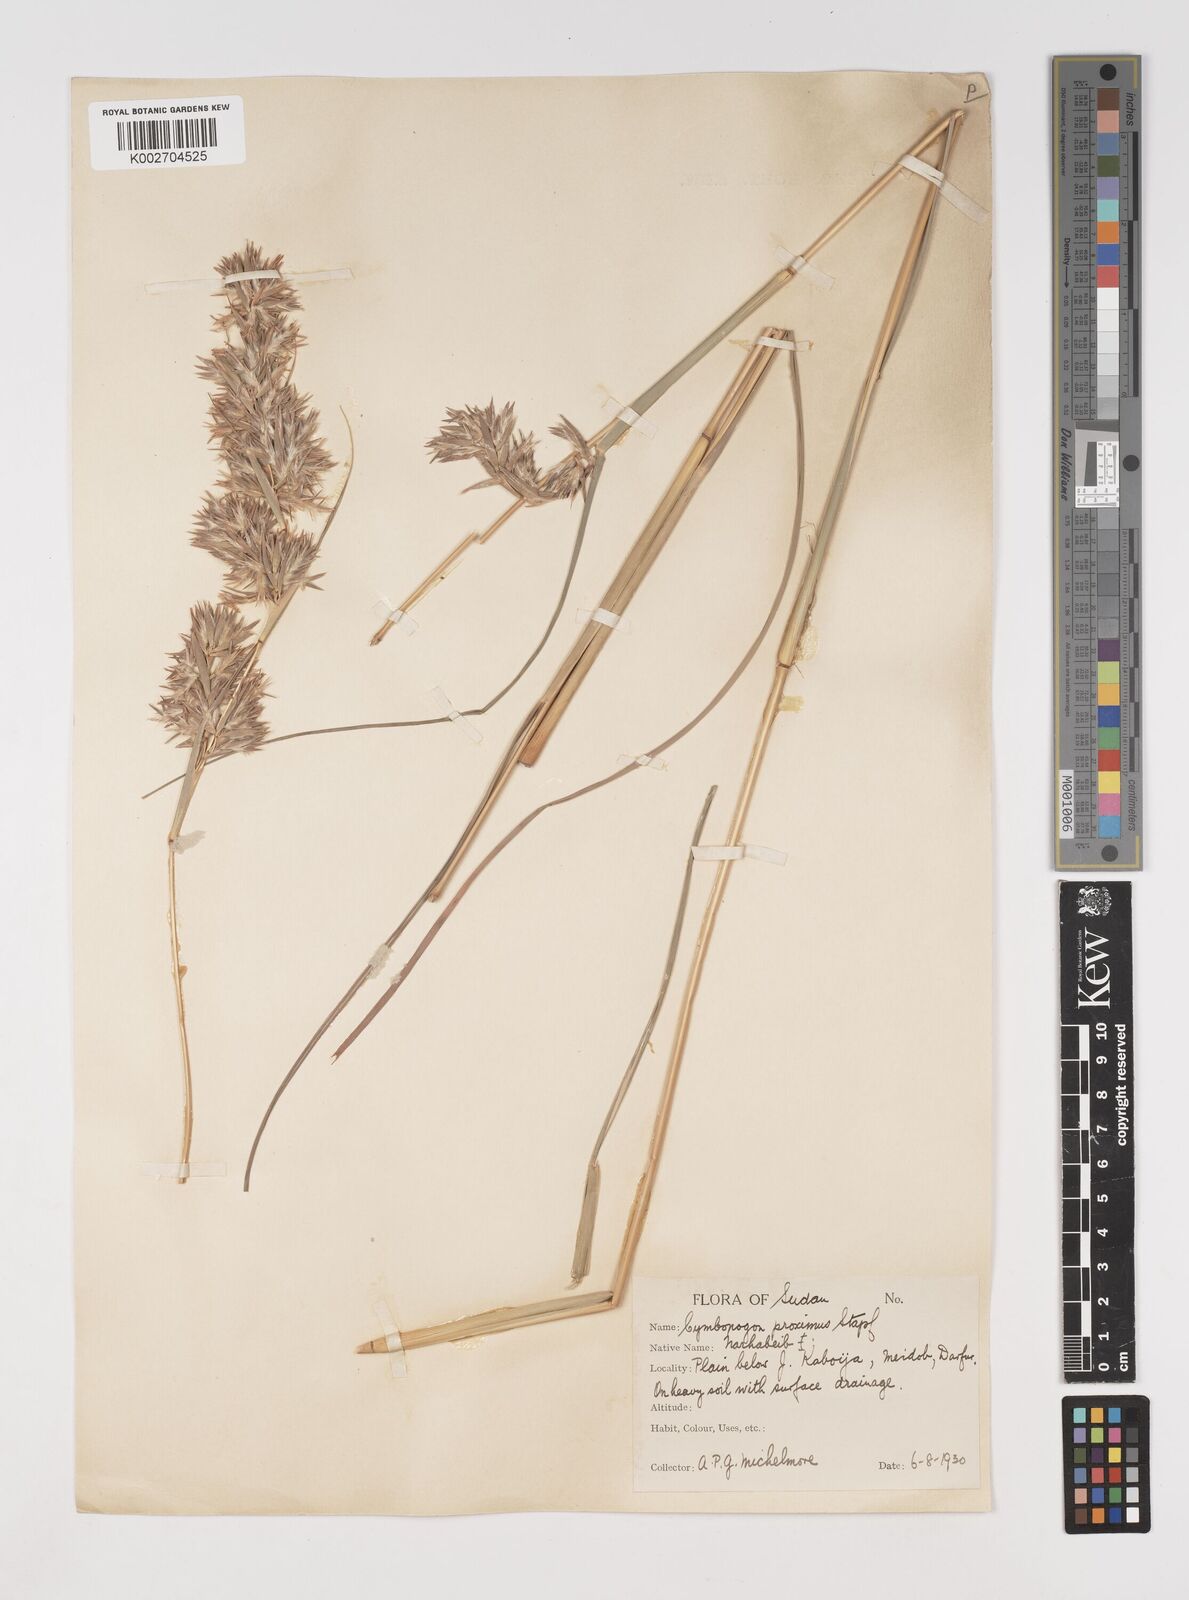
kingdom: Plantae
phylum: Tracheophyta
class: Liliopsida
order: Poales
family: Poaceae
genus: Cymbopogon
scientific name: Cymbopogon schoenanthus
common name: Geranium grass
